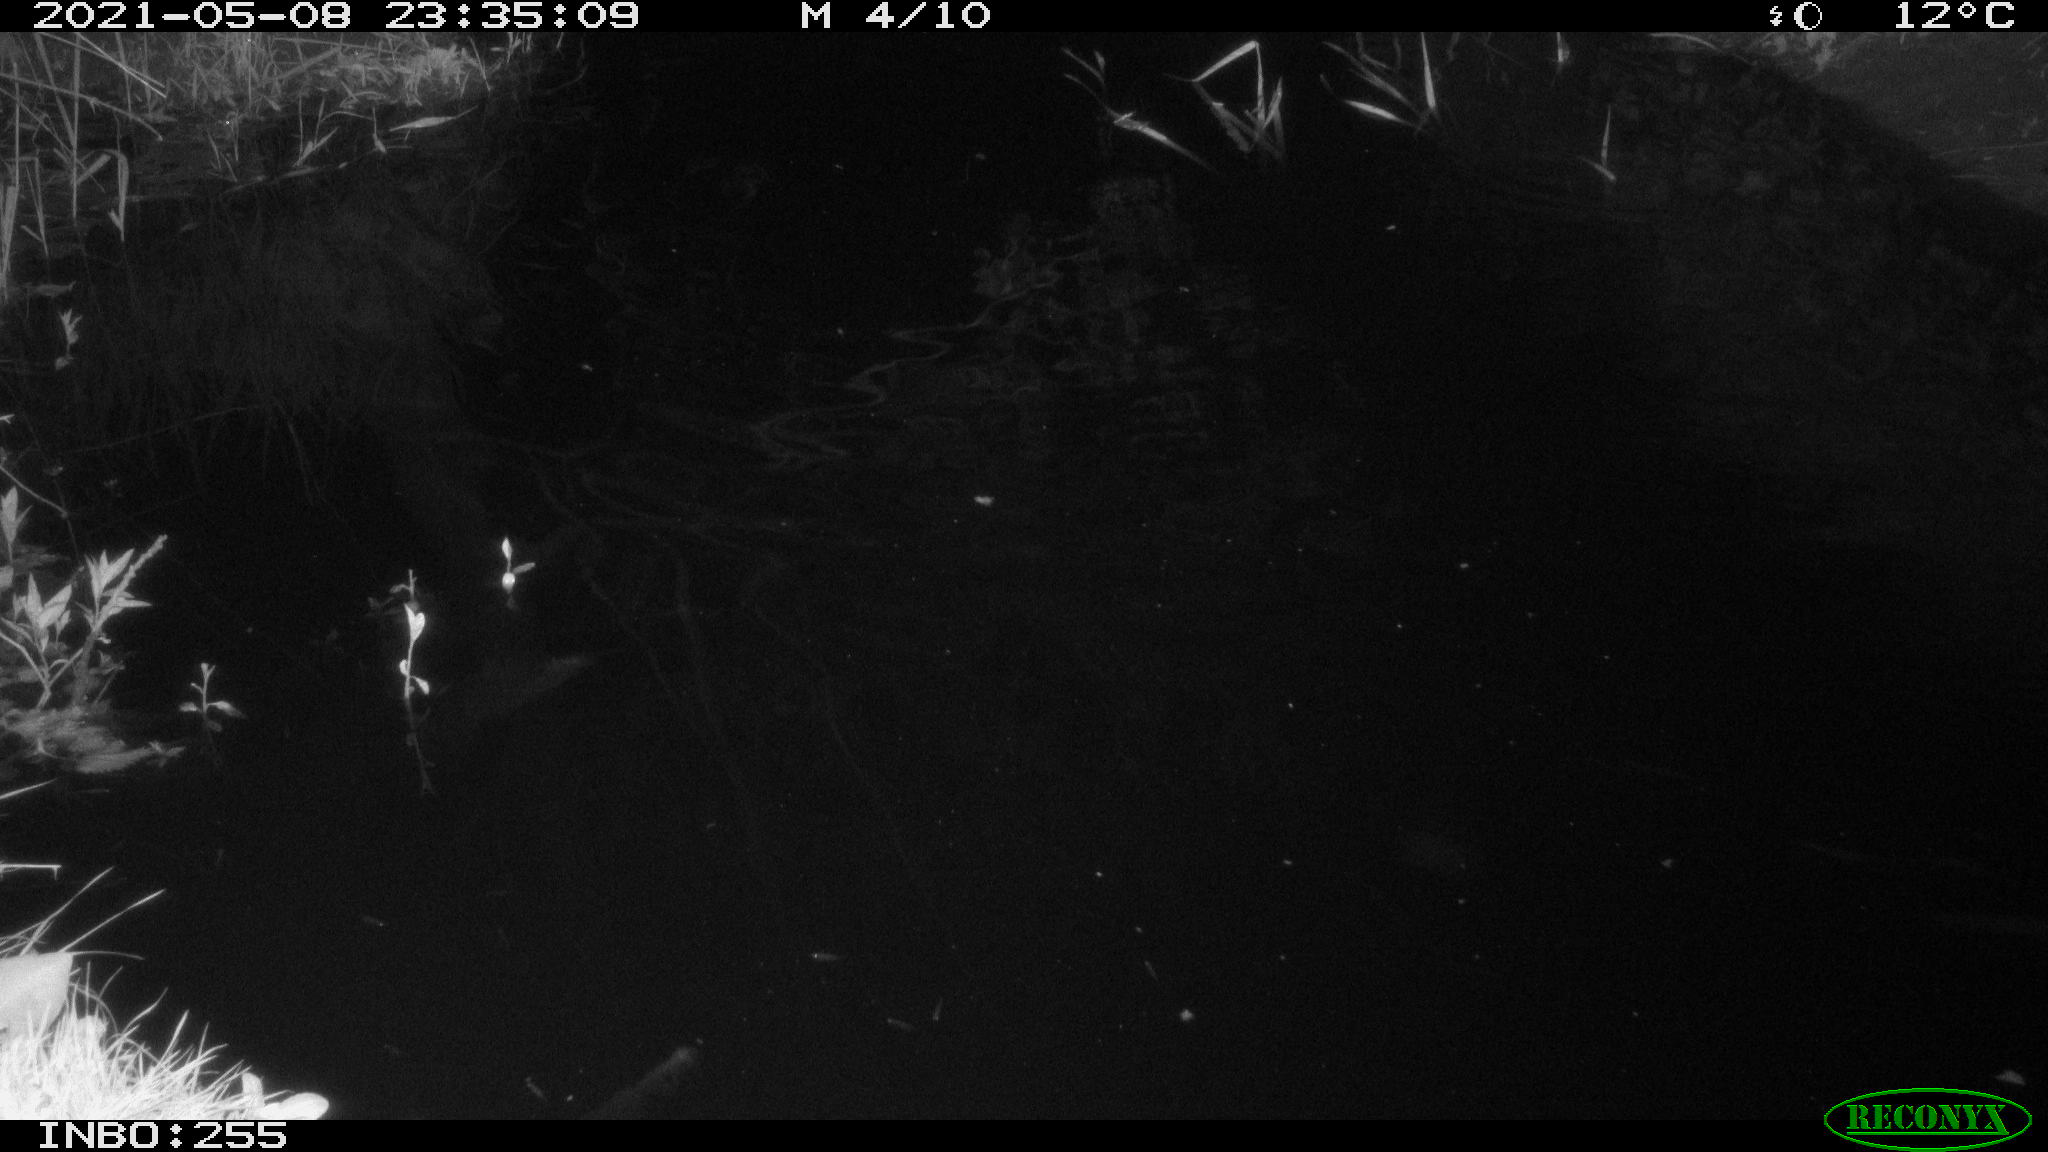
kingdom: Animalia
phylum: Chordata
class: Aves
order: Anseriformes
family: Anatidae
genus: Anas
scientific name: Anas platyrhynchos
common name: Mallard
